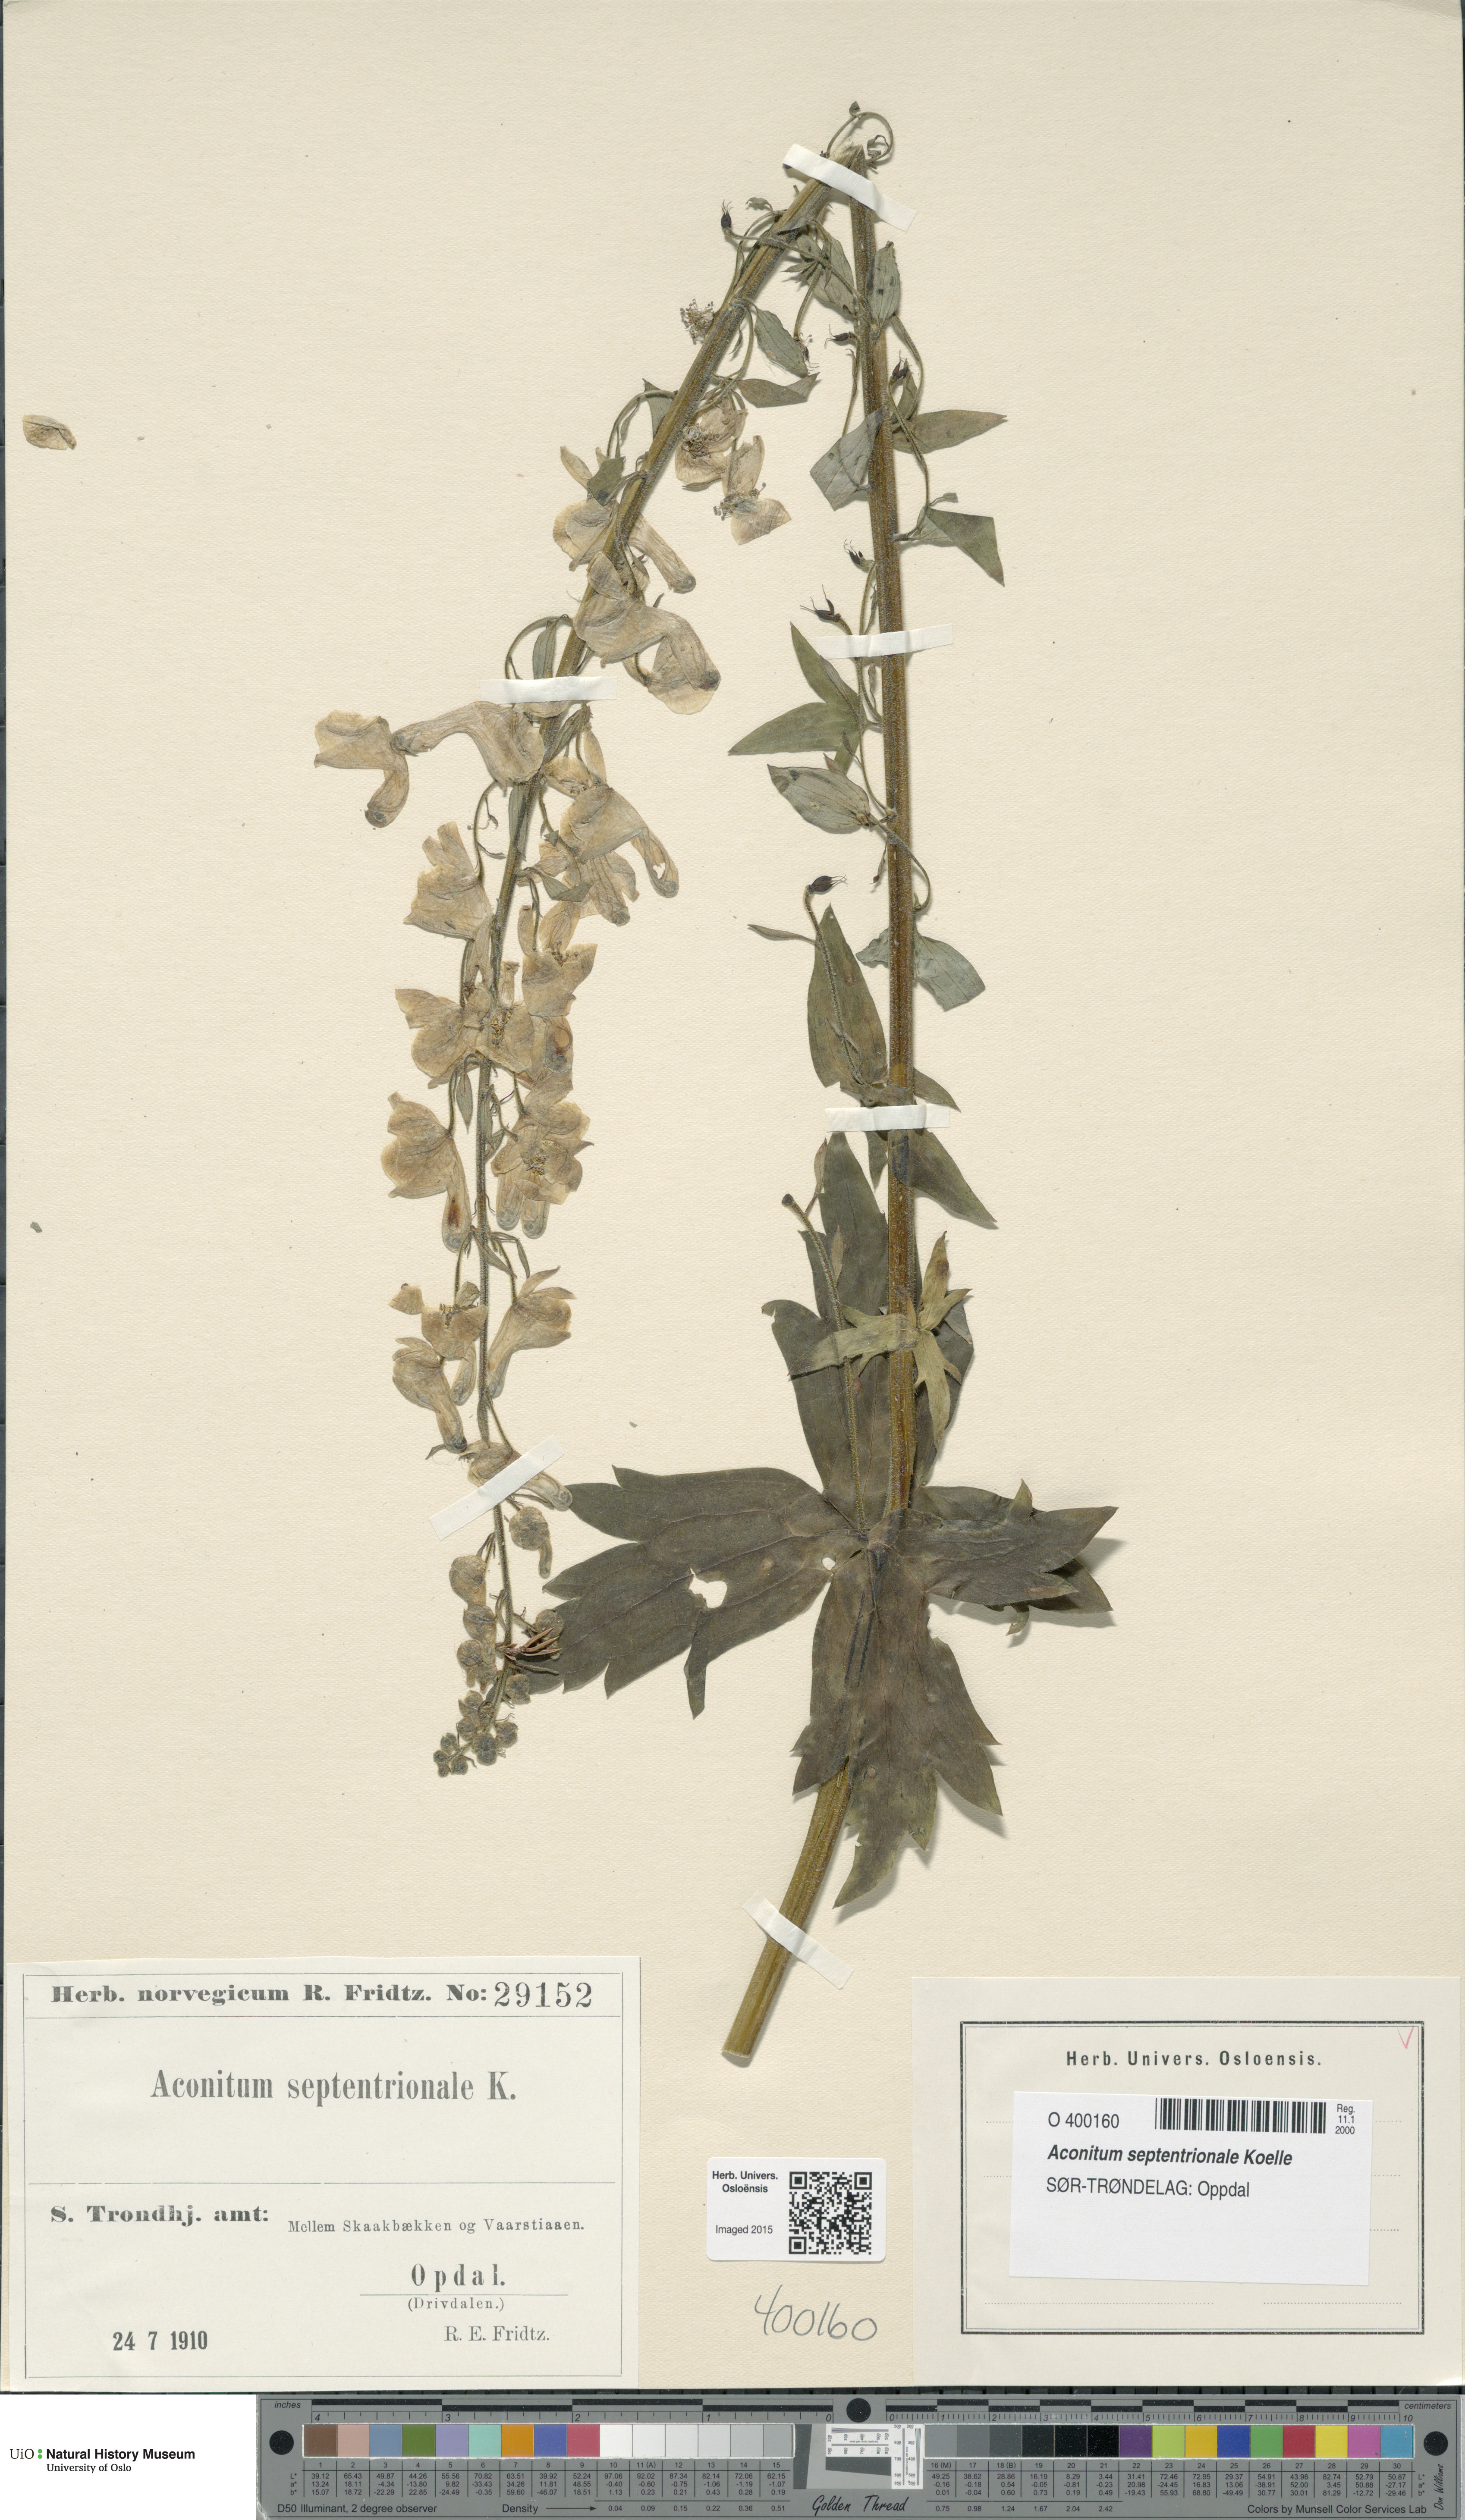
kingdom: Plantae
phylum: Tracheophyta
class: Magnoliopsida
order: Ranunculales
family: Ranunculaceae
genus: Aconitum
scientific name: Aconitum septentrionale
